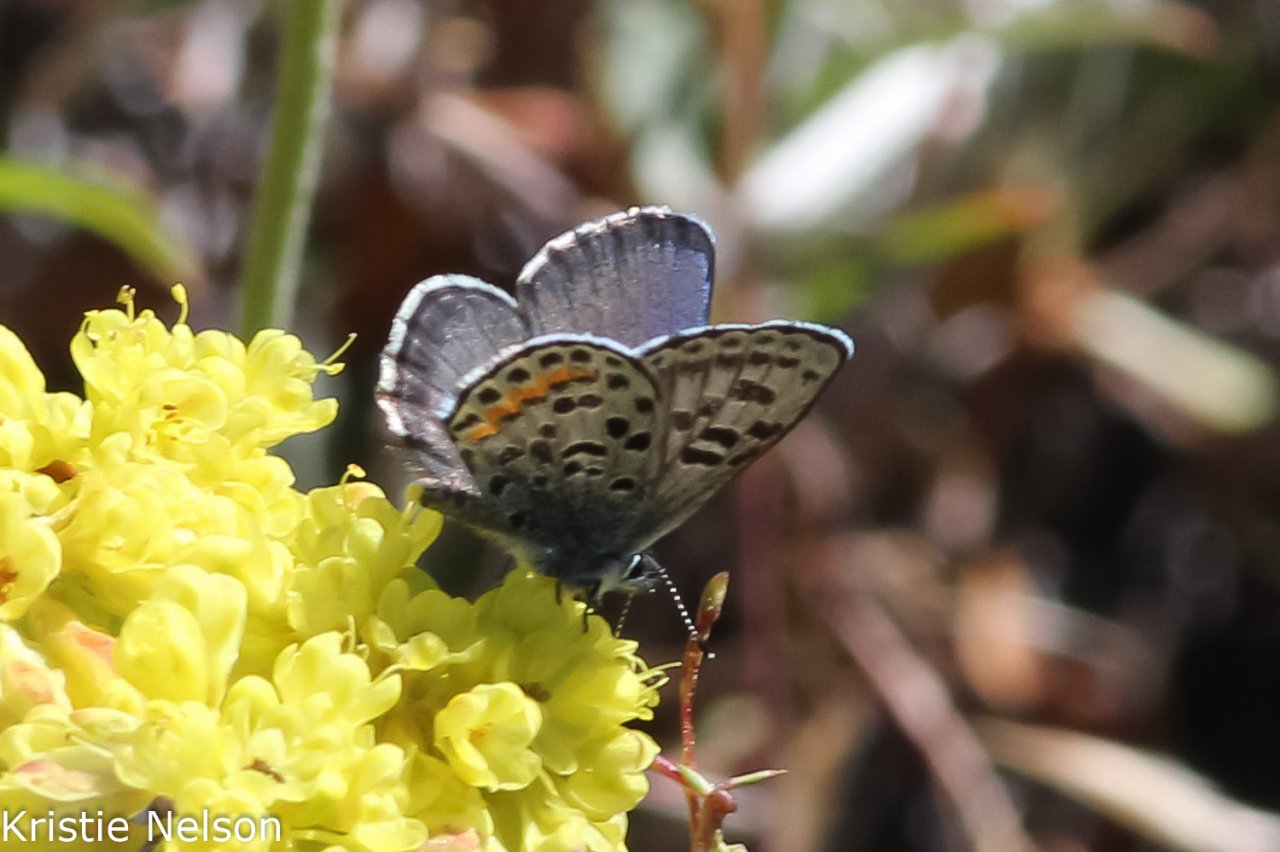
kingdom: Animalia
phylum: Arthropoda
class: Insecta
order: Lepidoptera
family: Lycaenidae
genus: Euphilotes
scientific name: Euphilotes battoides
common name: Glaucon Blue
